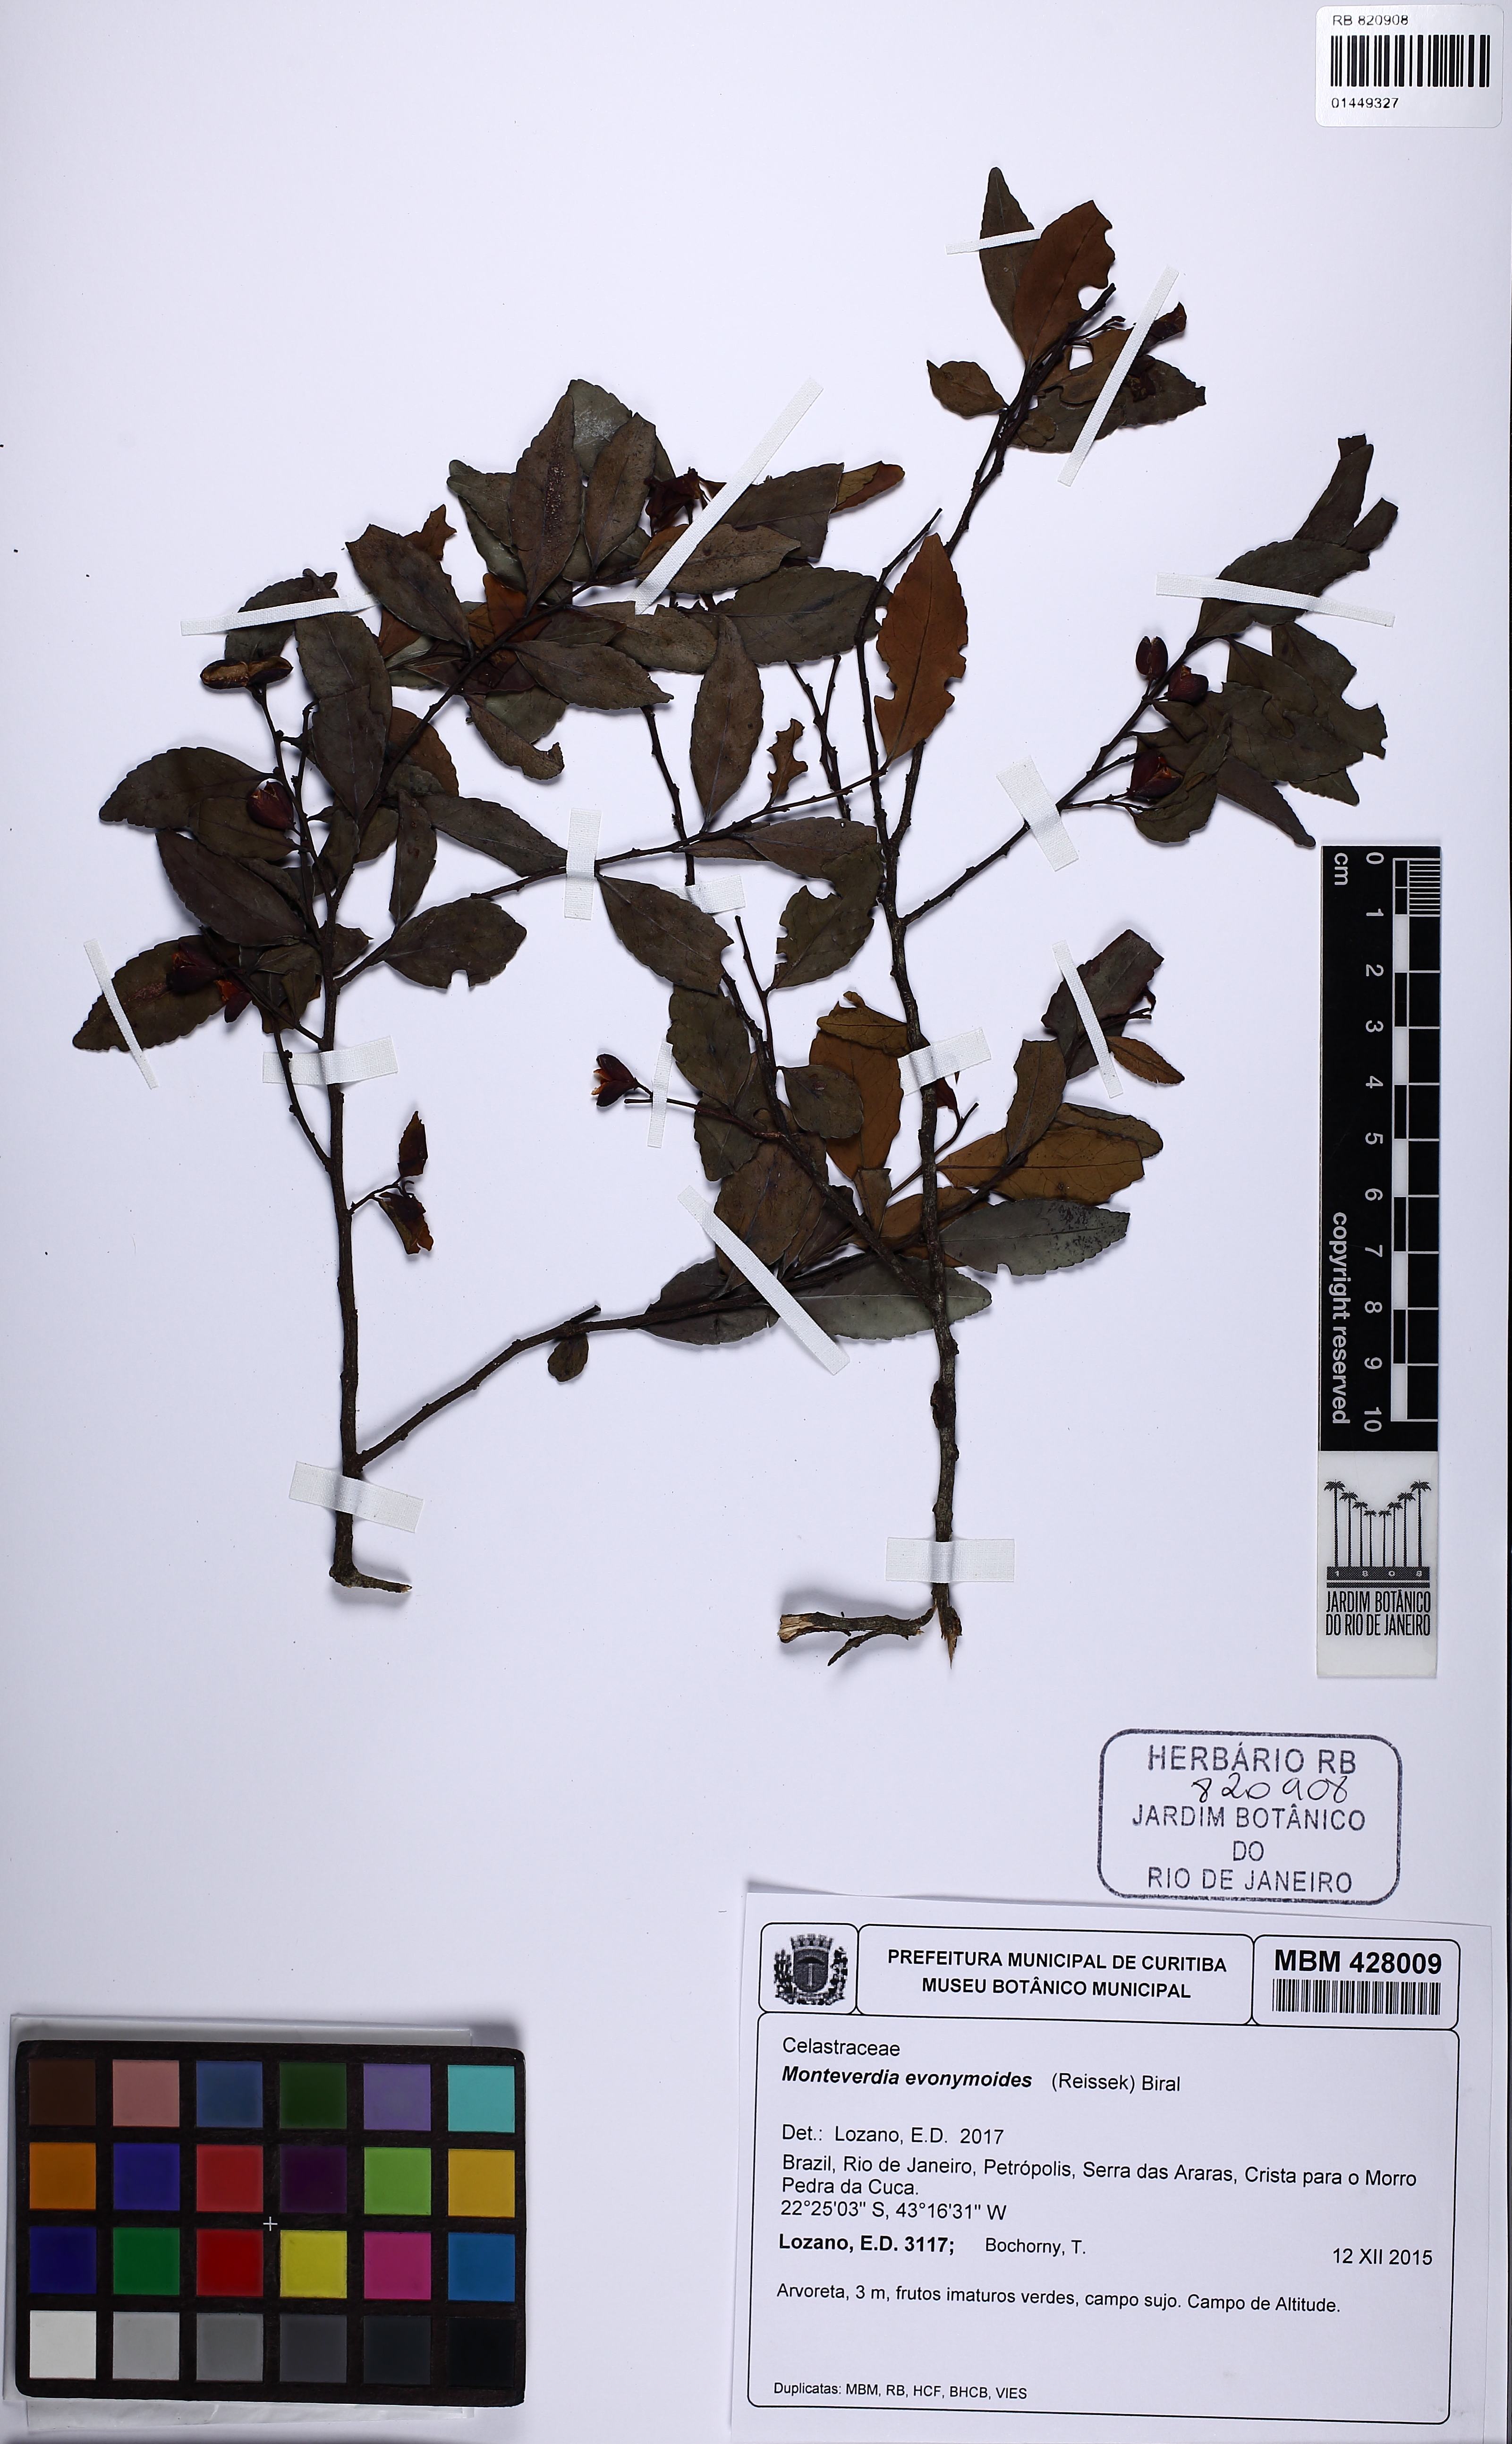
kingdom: Plantae
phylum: Tracheophyta
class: Magnoliopsida
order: Celastrales
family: Celastraceae
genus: Monteverdia
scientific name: Monteverdia evonymoides
